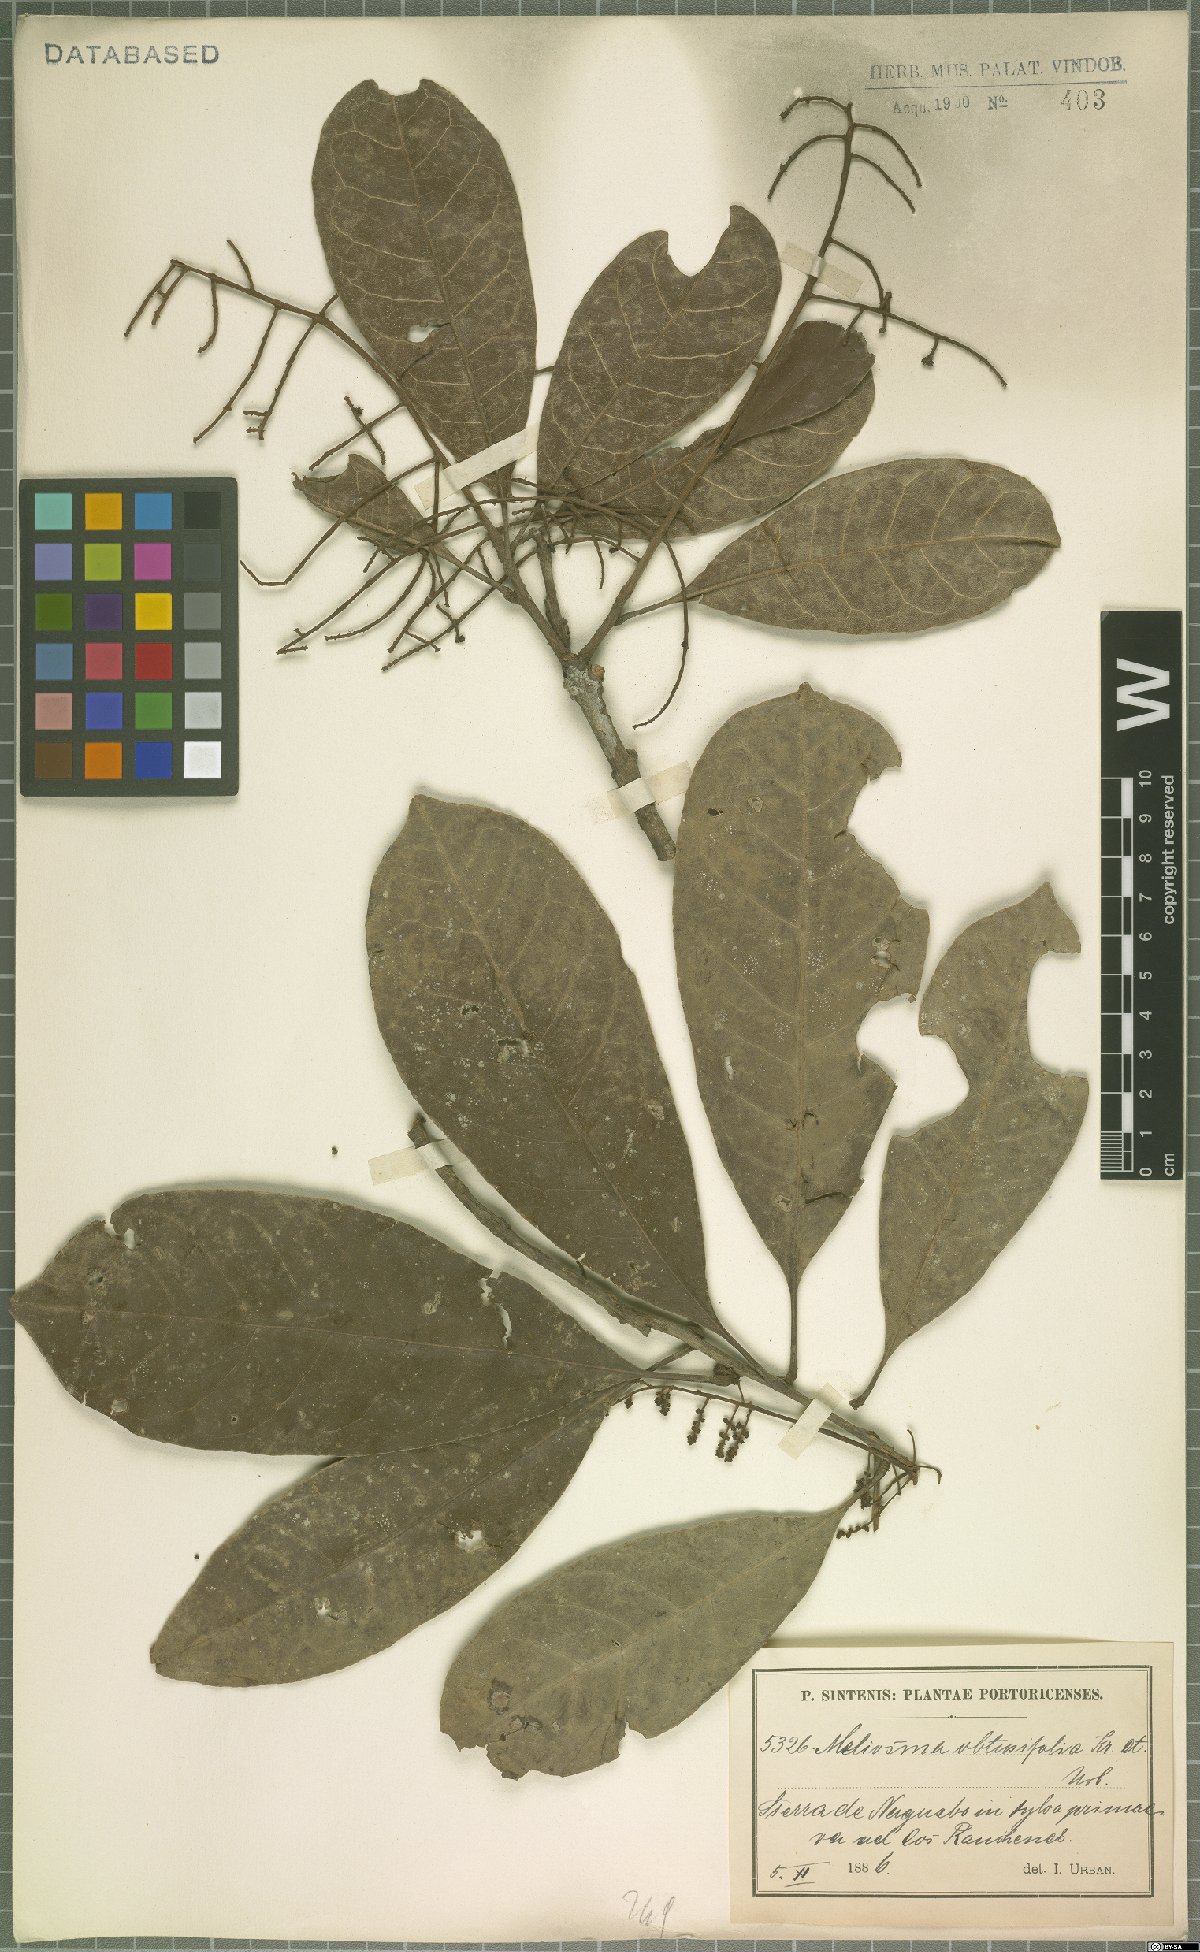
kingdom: Plantae
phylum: Tracheophyta
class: Magnoliopsida
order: Proteales
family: Sabiaceae
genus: Meliosma
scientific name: Meliosma obtusifolia
